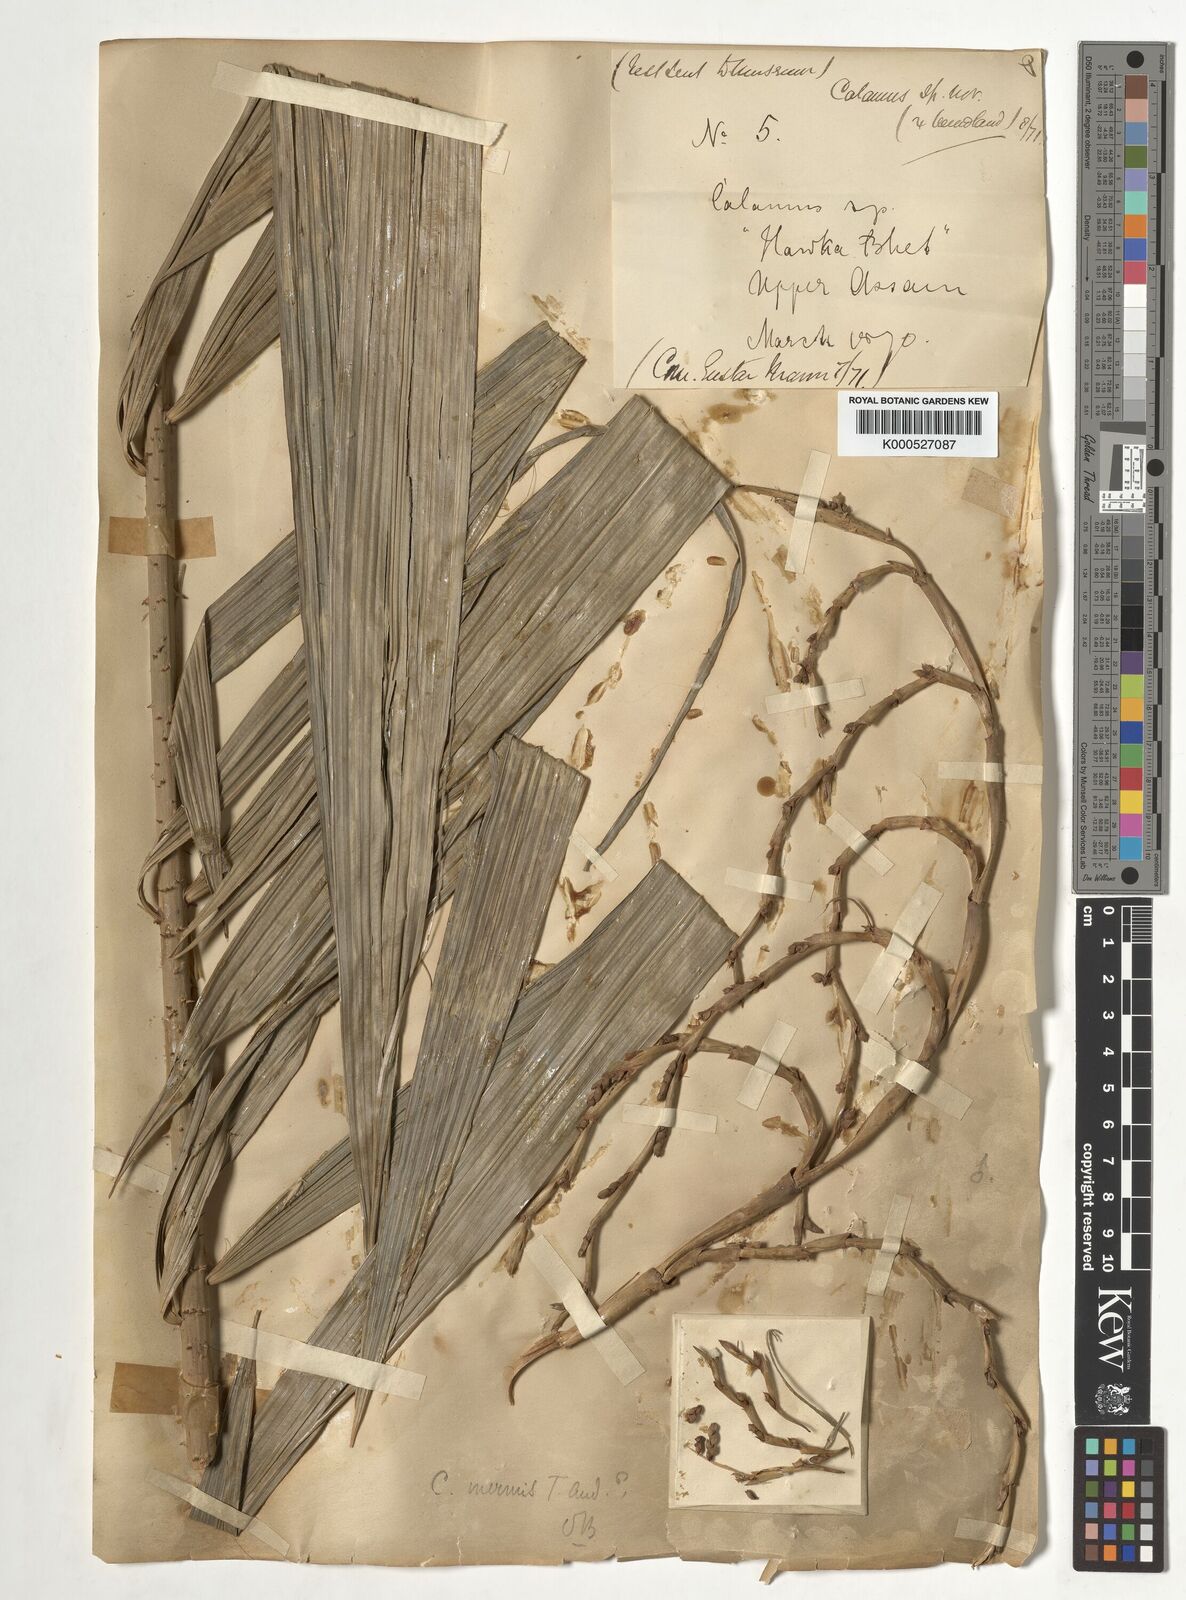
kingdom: Plantae
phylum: Tracheophyta
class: Liliopsida
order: Arecales
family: Arecaceae
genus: Calamus
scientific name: Calamus latifolius
